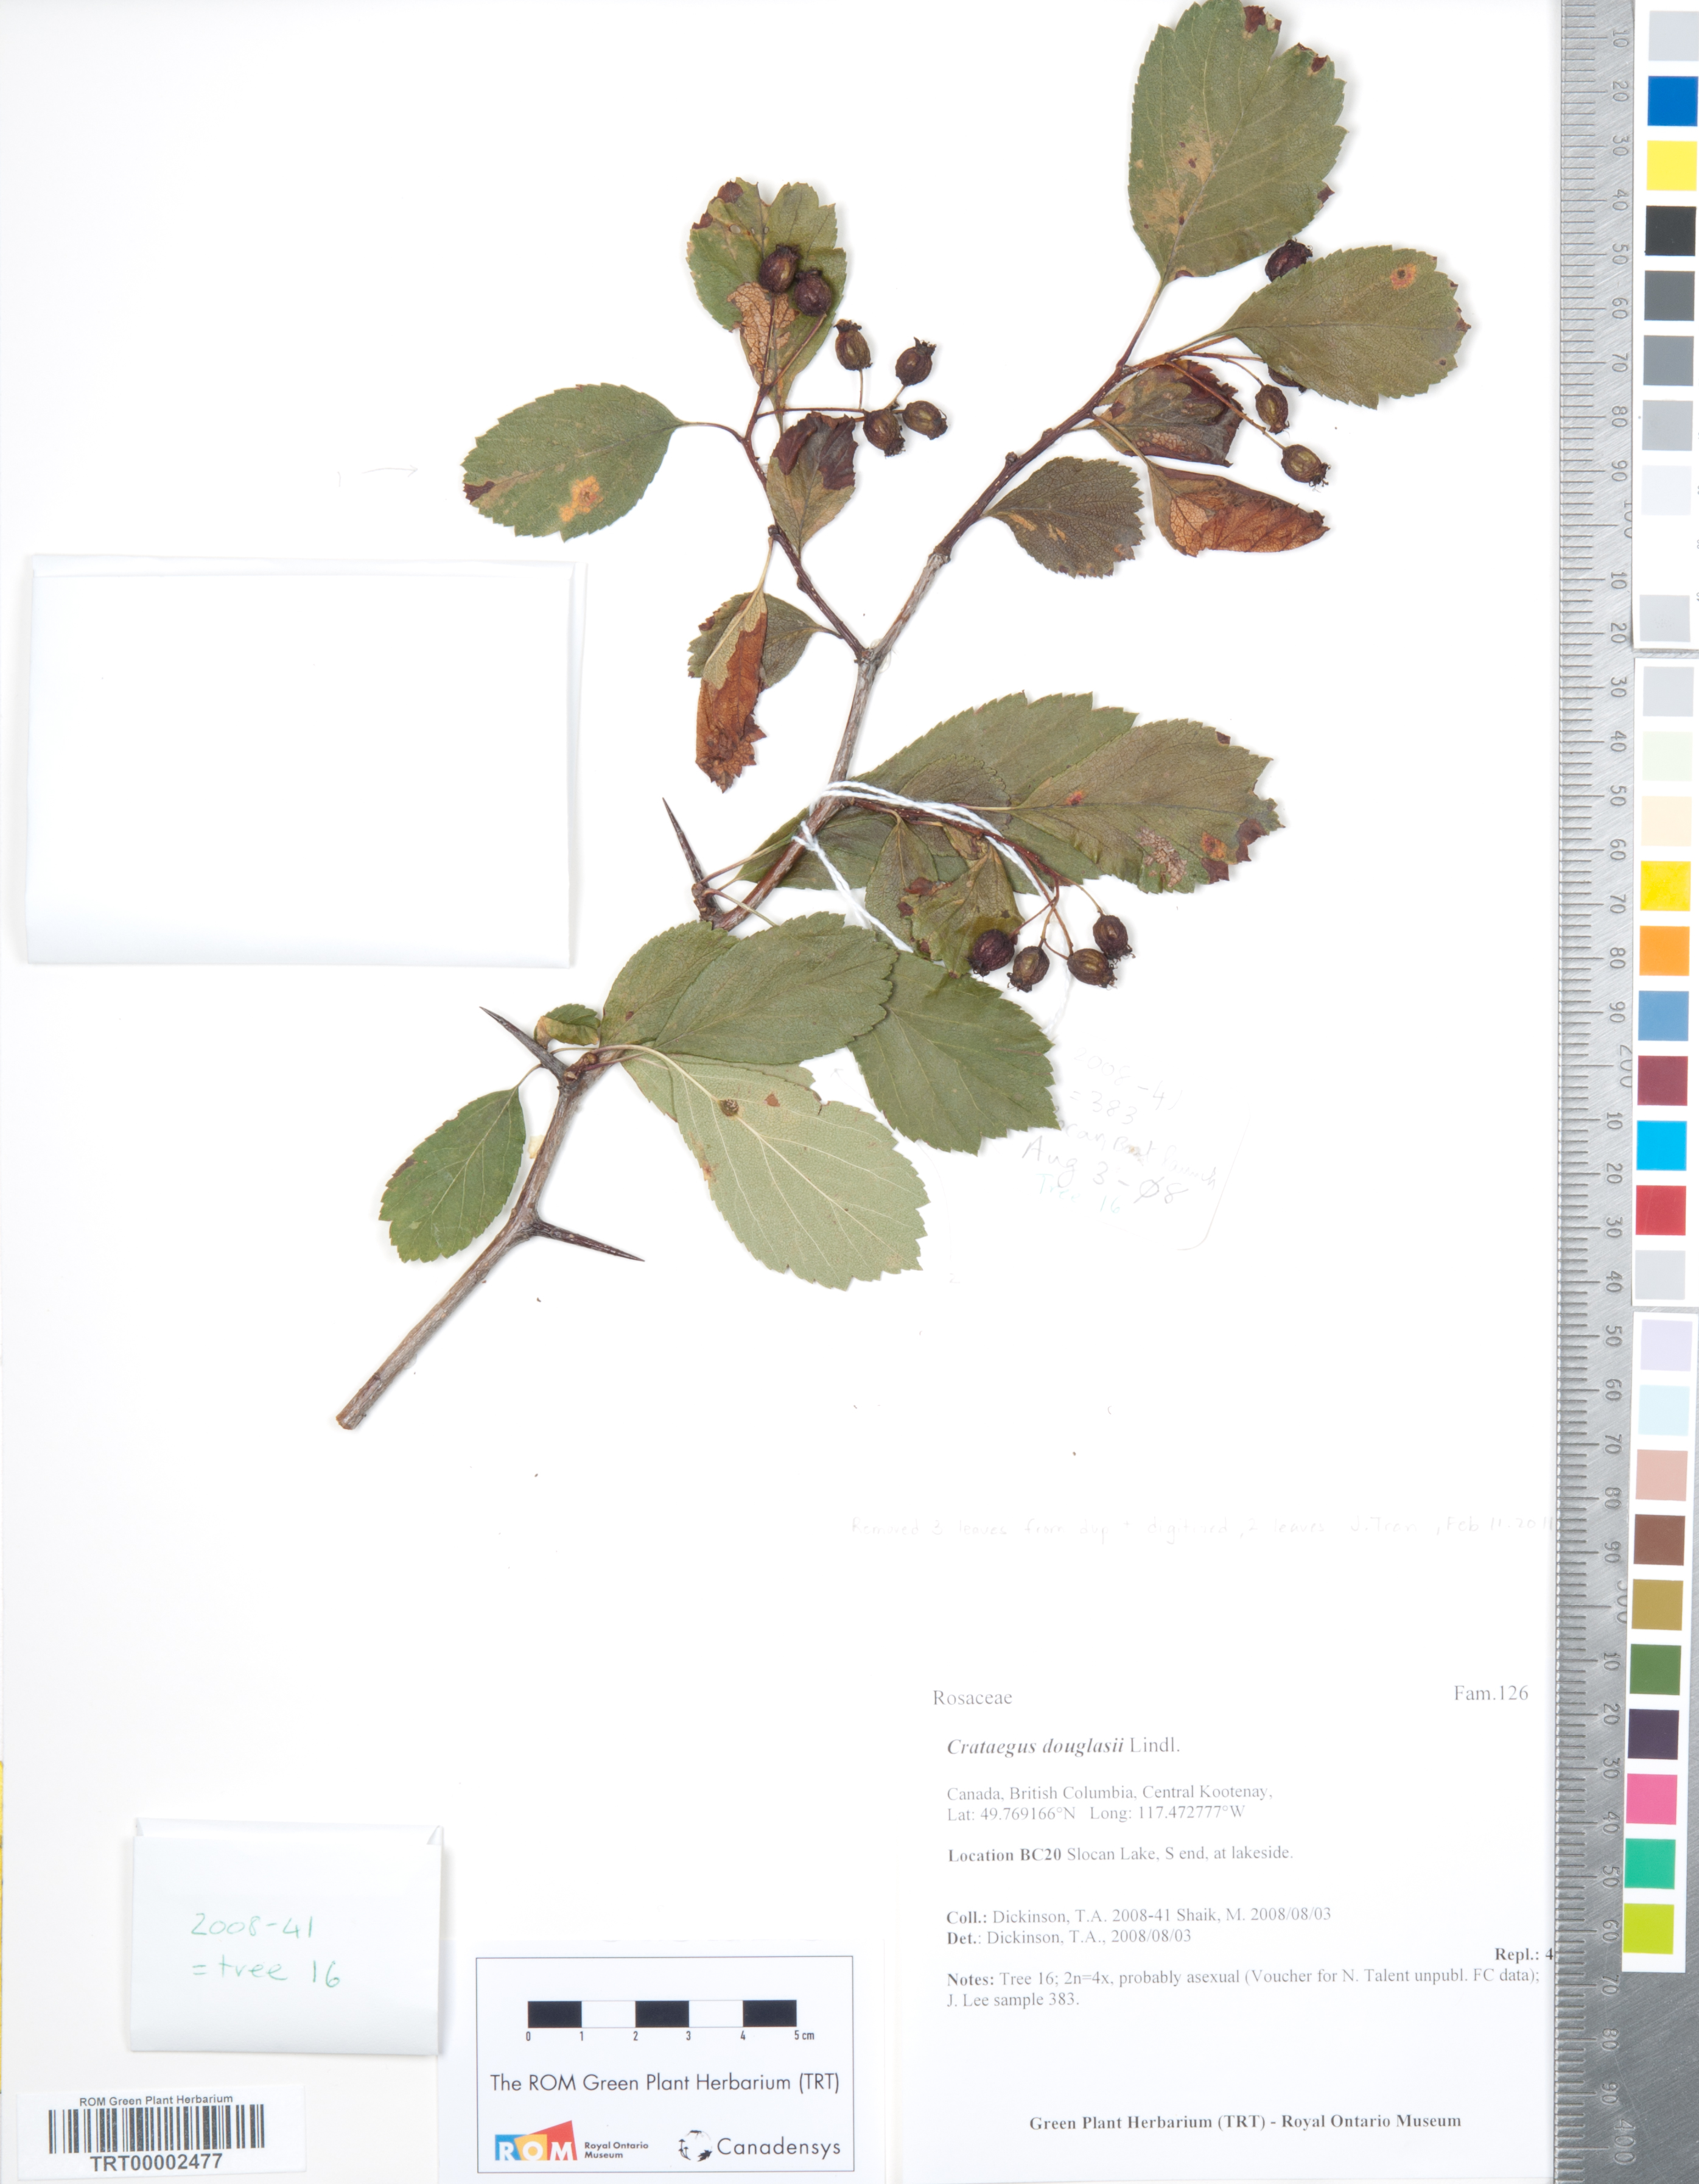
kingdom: Plantae
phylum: Tracheophyta
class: Magnoliopsida
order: Rosales
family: Rosaceae
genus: Crataegus
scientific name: Crataegus douglasii
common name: Black hawthorn
